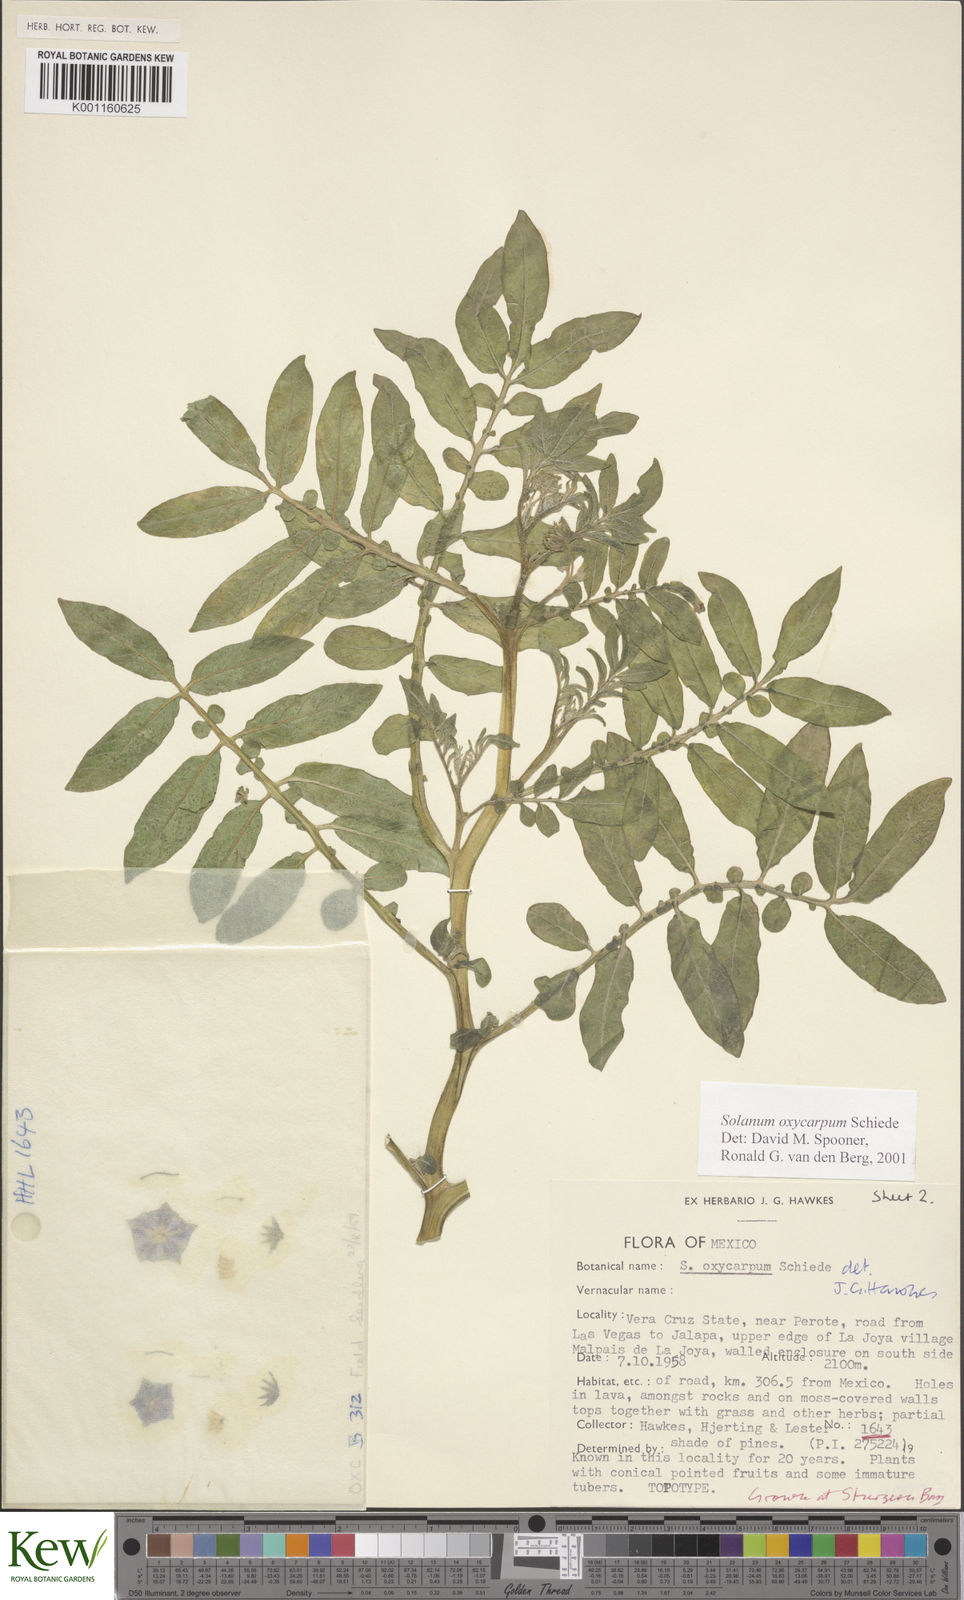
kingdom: Plantae
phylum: Tracheophyta
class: Magnoliopsida
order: Solanales
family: Solanaceae
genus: Solanum
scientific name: Solanum oxycarpum
